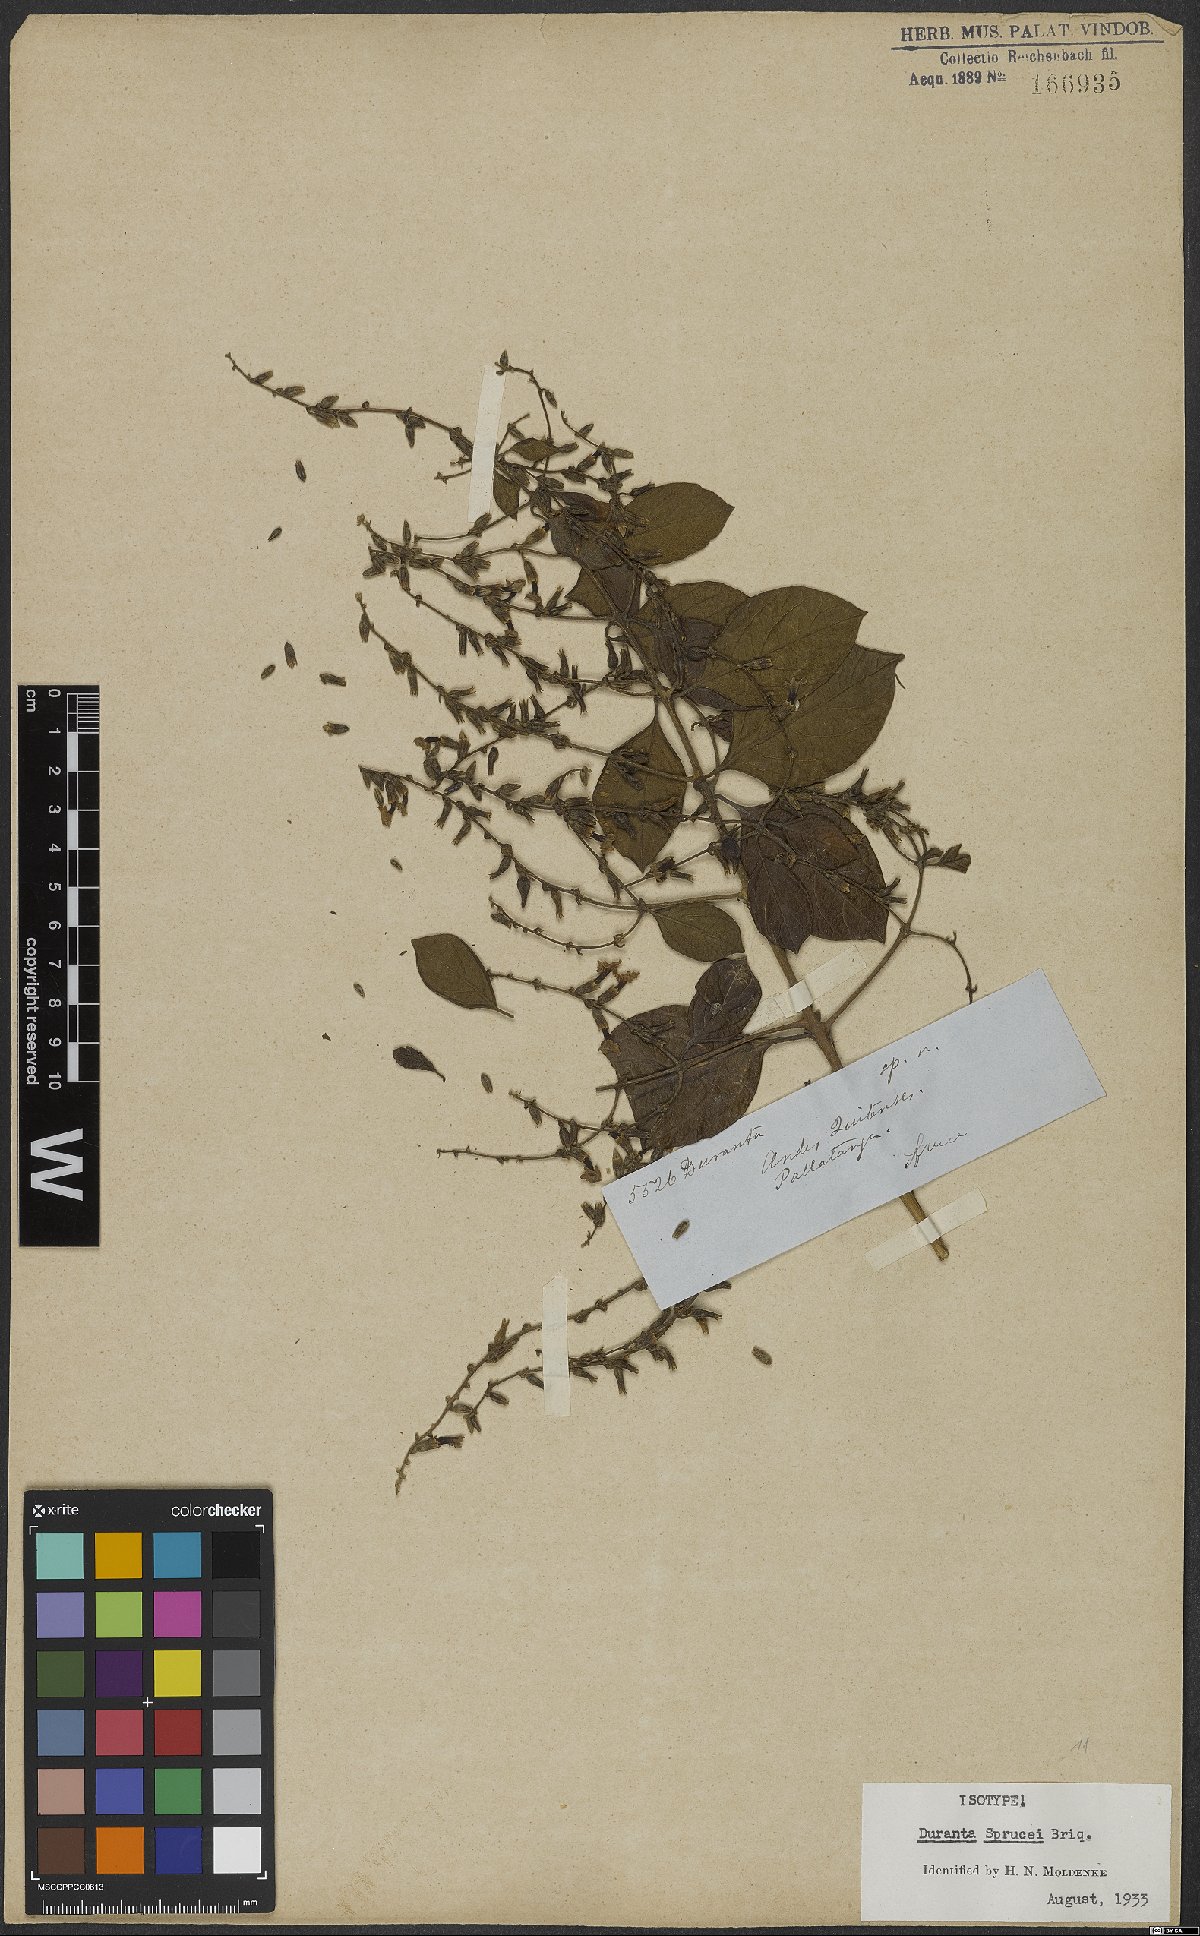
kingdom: Plantae
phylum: Tracheophyta
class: Magnoliopsida
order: Lamiales
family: Verbenaceae
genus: Duranta
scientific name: Duranta sprucei
